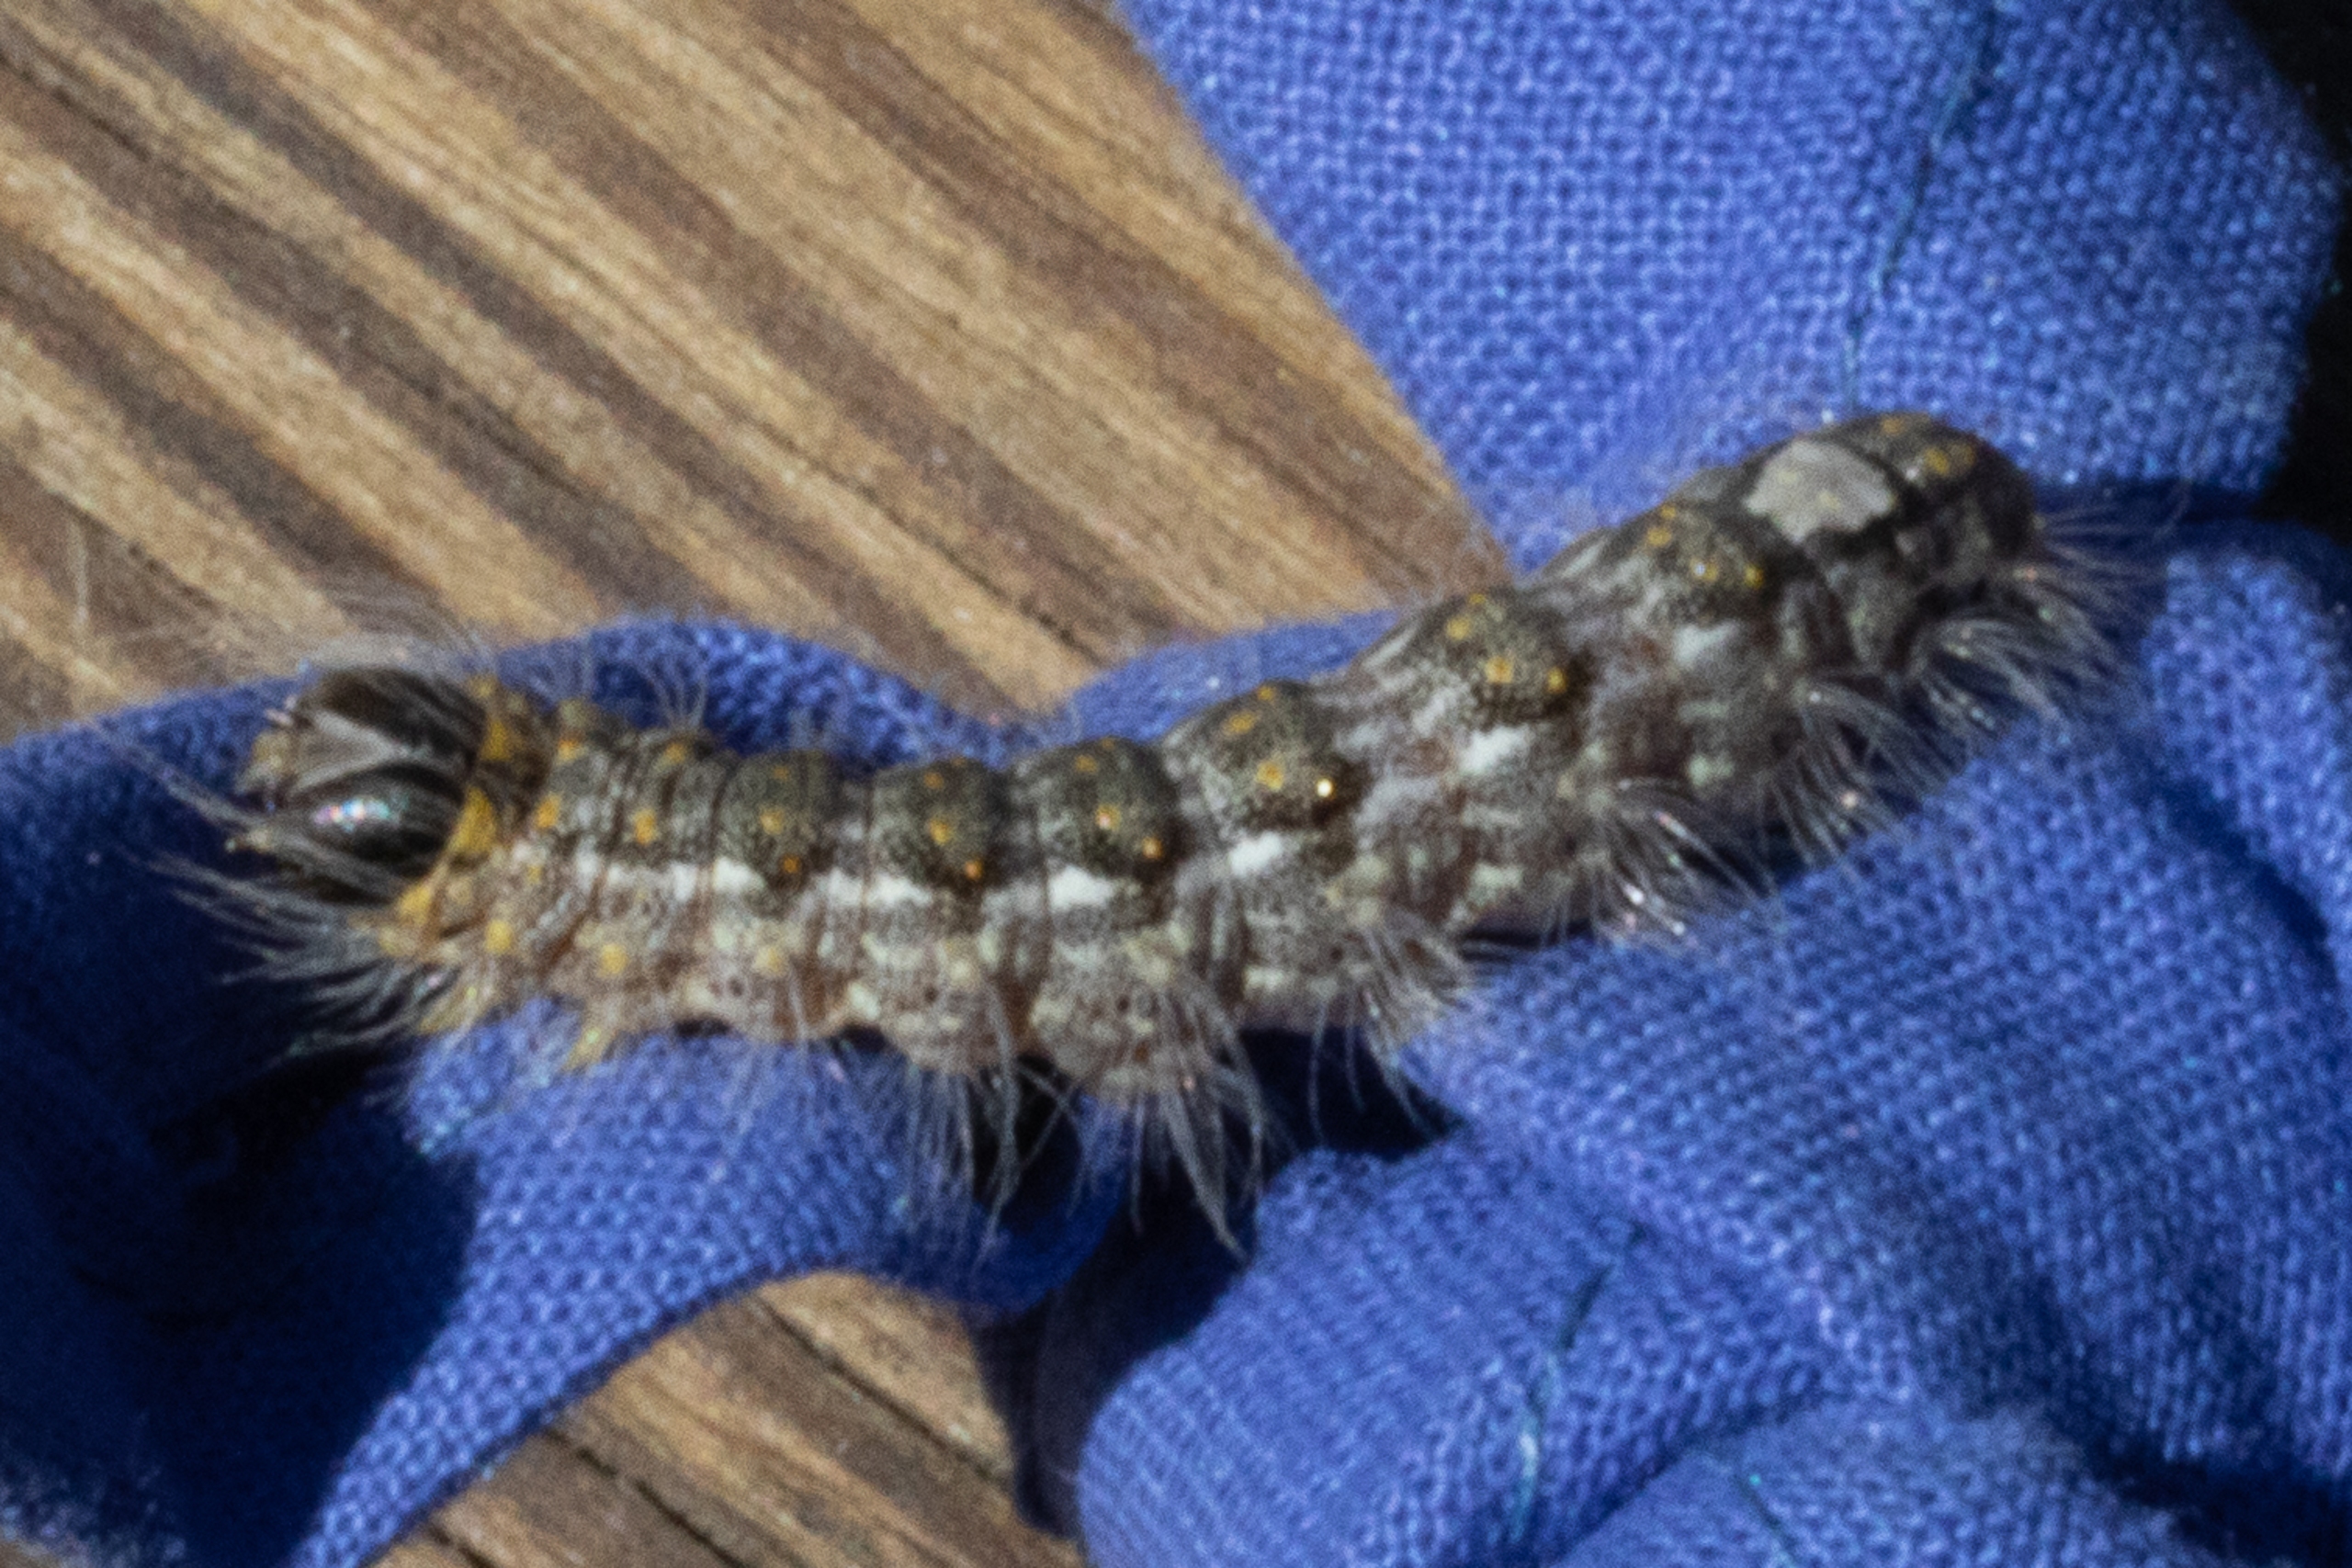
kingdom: Animalia
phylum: Arthropoda
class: Insecta
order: Lepidoptera
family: Noctuidae
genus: Acronicta
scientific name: Acronicta megacephala
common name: Poppelugle
